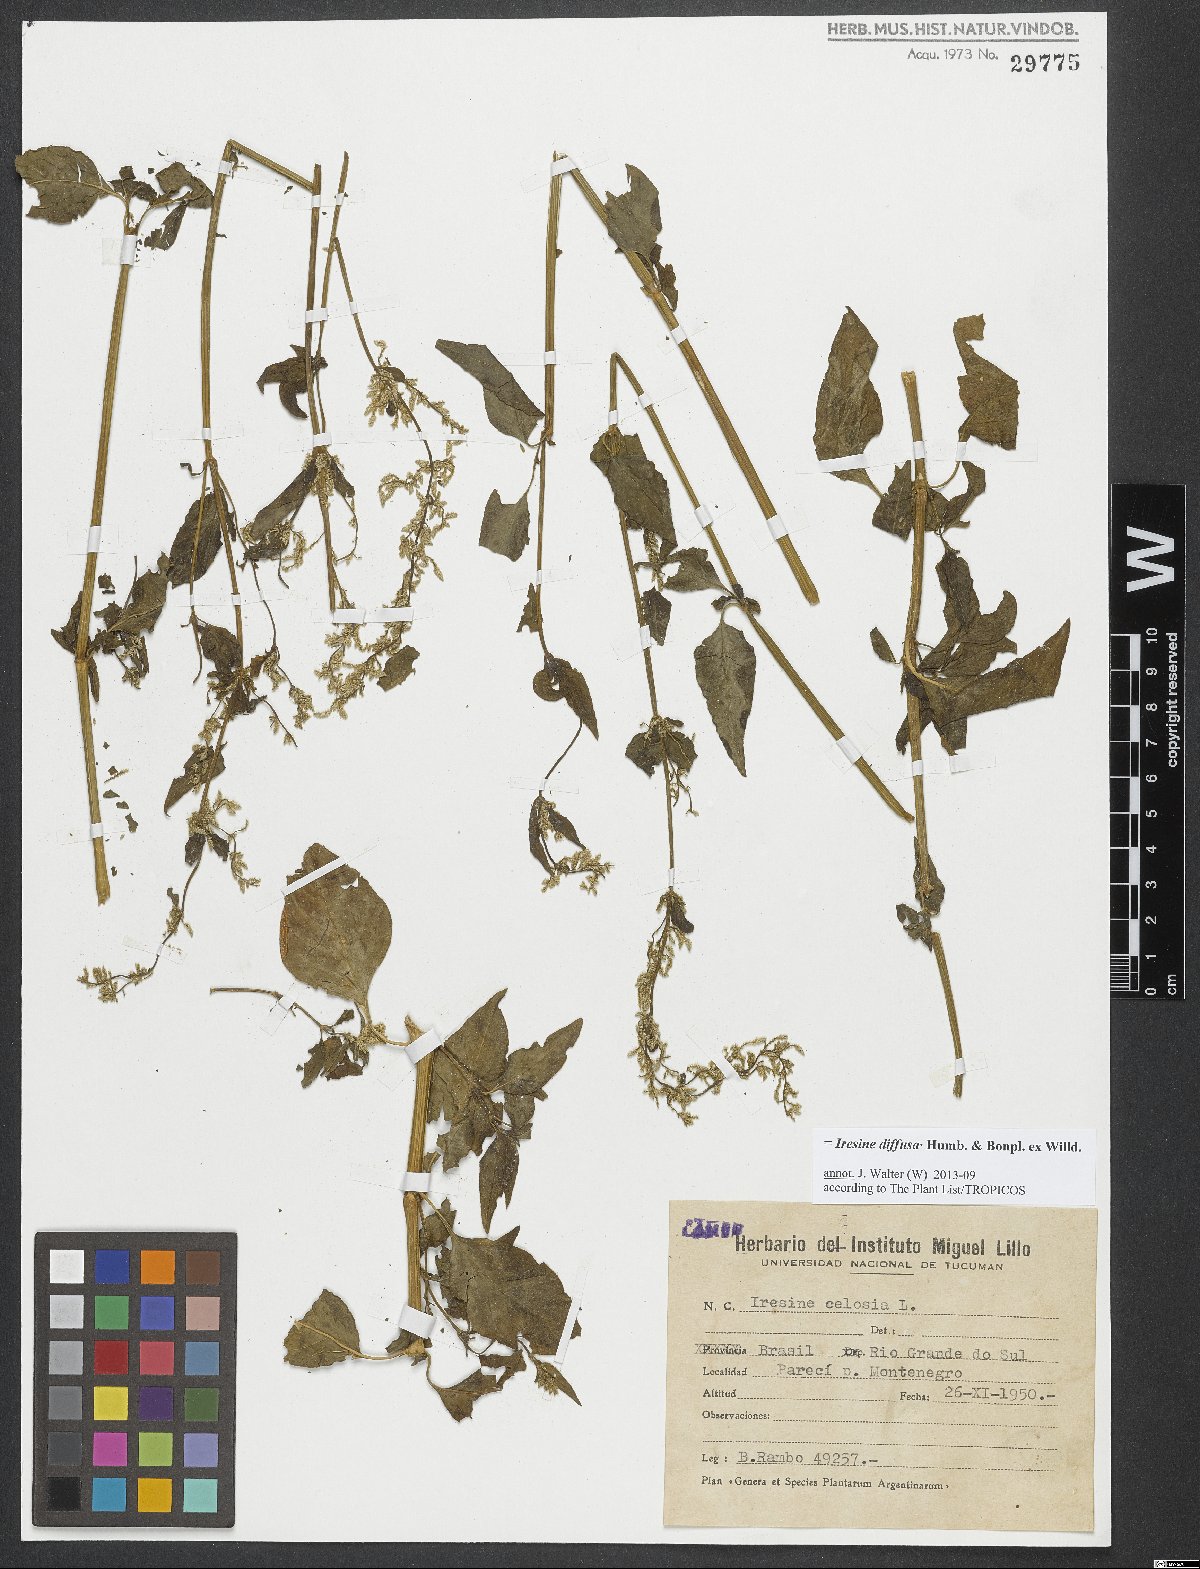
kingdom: Plantae
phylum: Tracheophyta
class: Magnoliopsida
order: Caryophyllales
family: Amaranthaceae
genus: Iresine
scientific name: Iresine diffusa
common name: Juba's-bush
